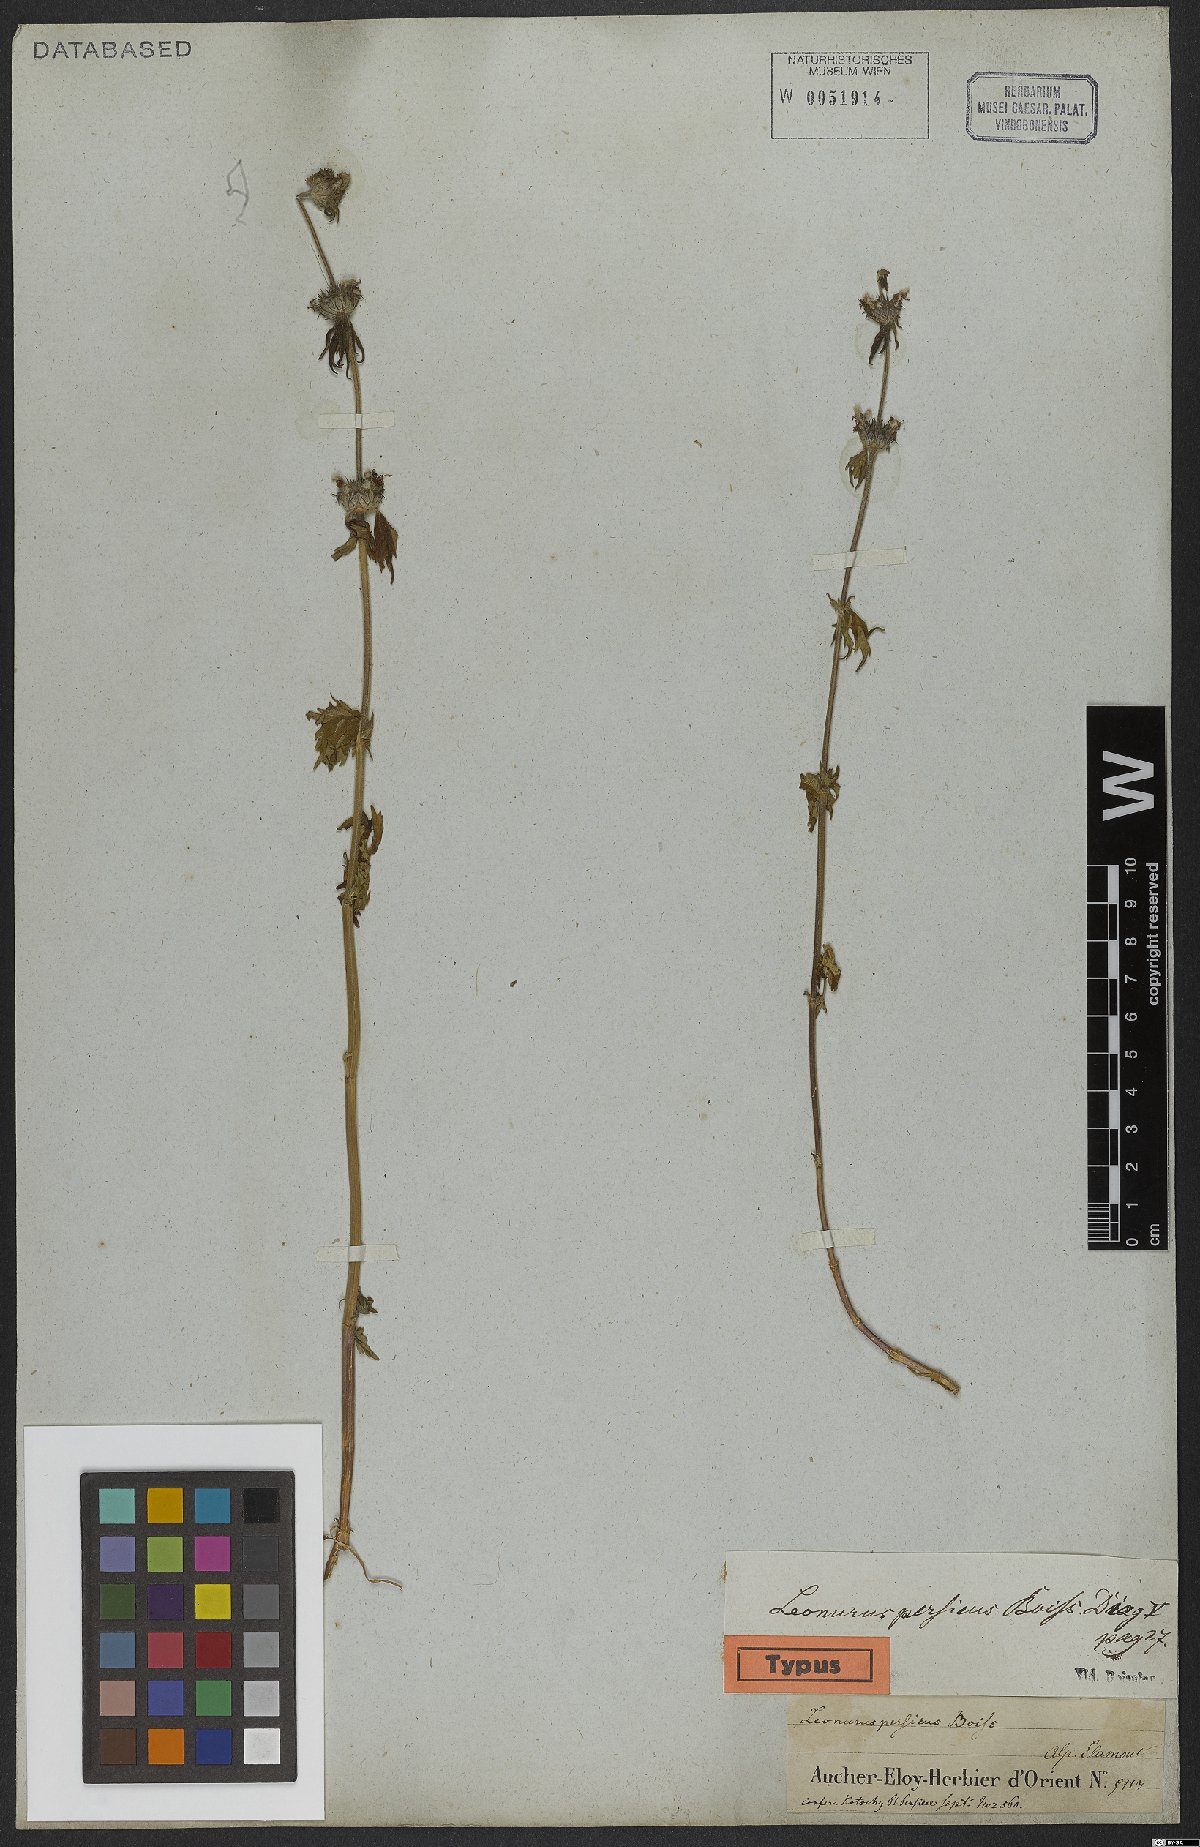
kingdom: Plantae
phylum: Tracheophyta
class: Magnoliopsida
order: Lamiales
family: Lamiaceae
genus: Leonurus
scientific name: Leonurus persicus
